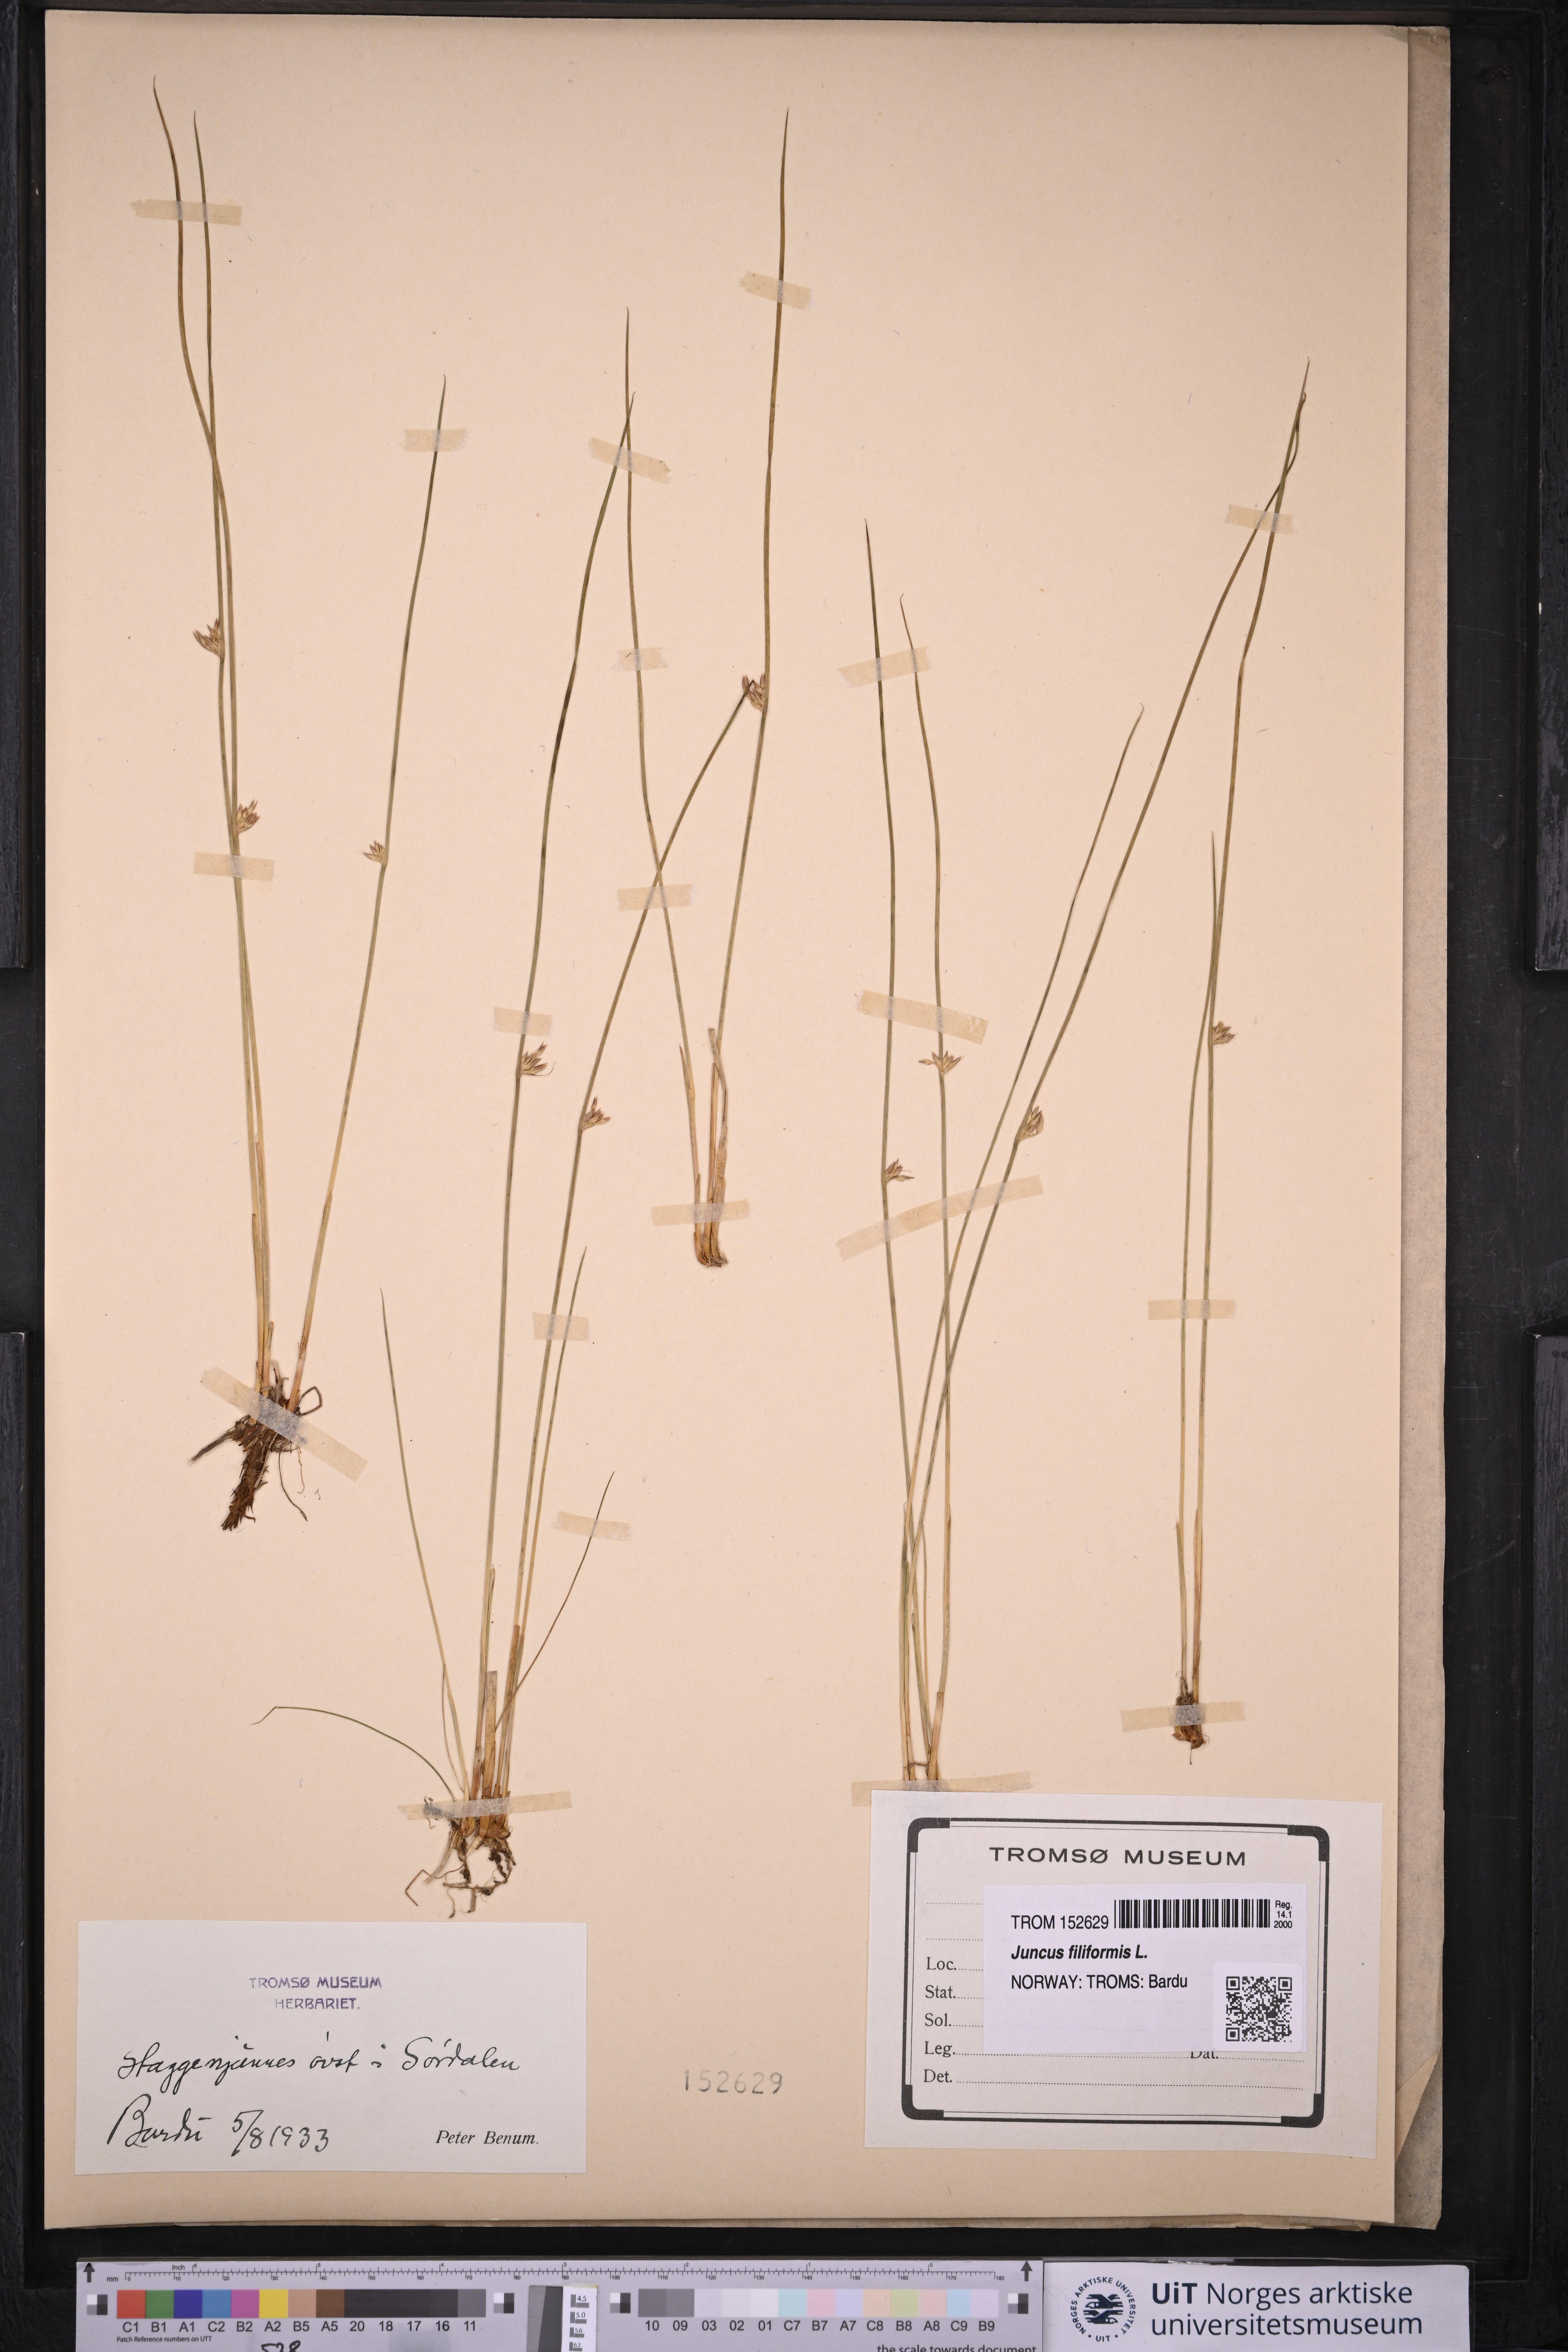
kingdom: Plantae
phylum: Tracheophyta
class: Liliopsida
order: Poales
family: Juncaceae
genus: Juncus
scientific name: Juncus filiformis
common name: Thread rush
